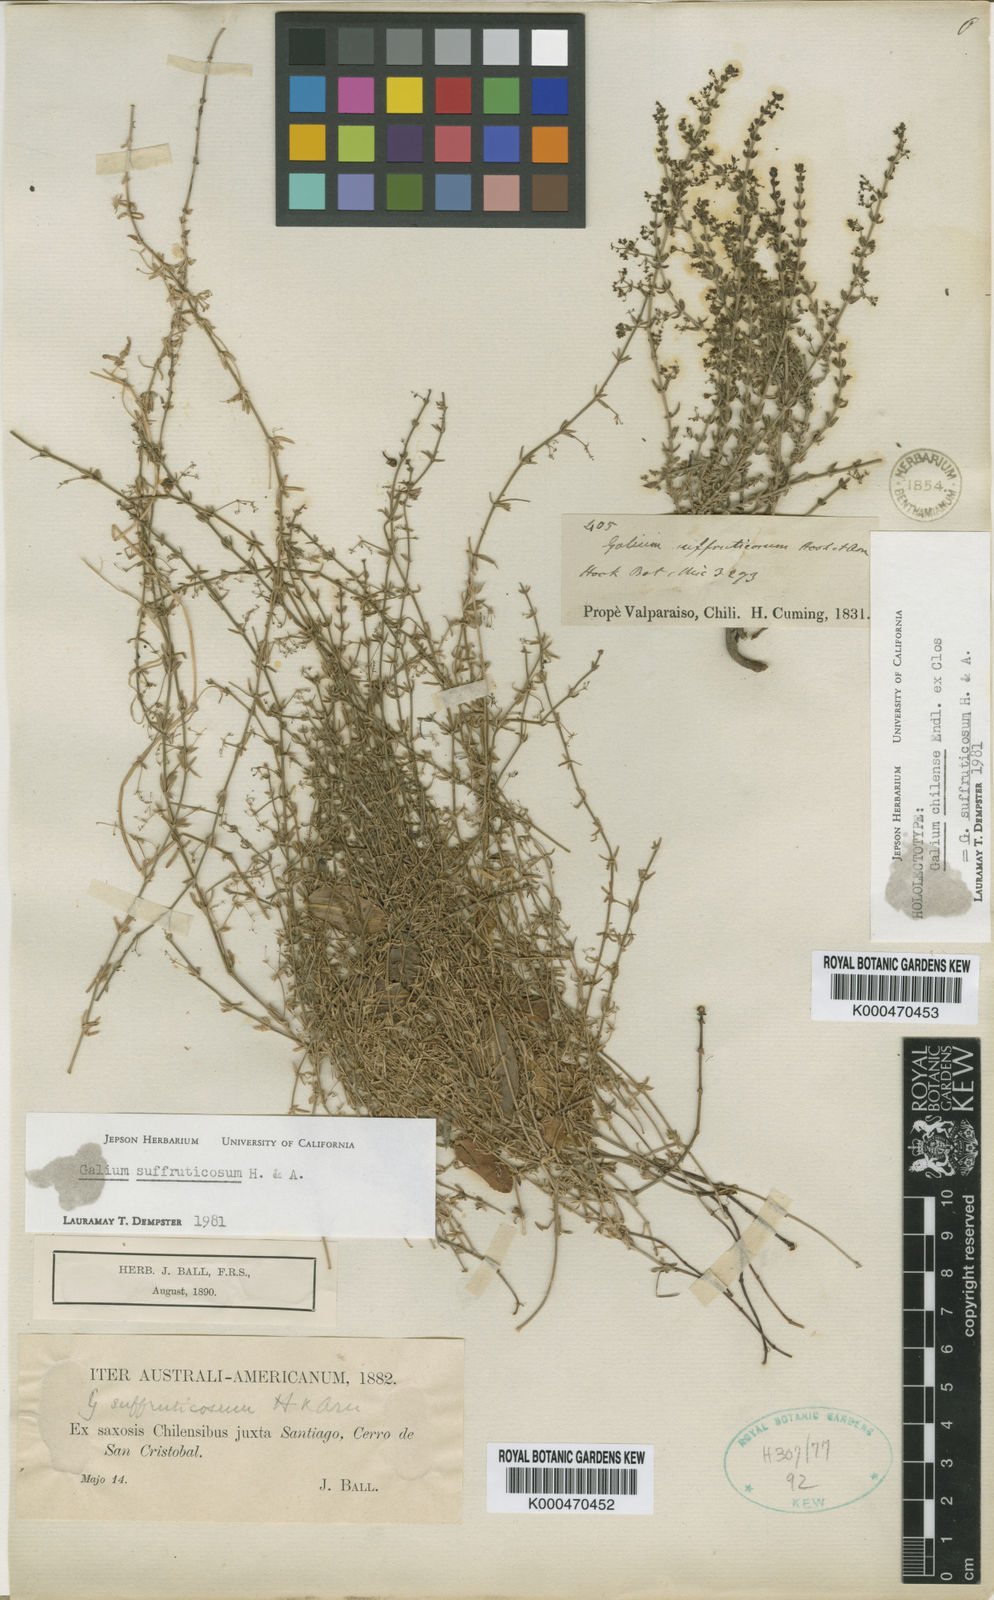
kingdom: Plantae
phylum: Tracheophyta
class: Magnoliopsida
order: Gentianales
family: Rubiaceae
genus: Galium
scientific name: Galium suffruticosum
